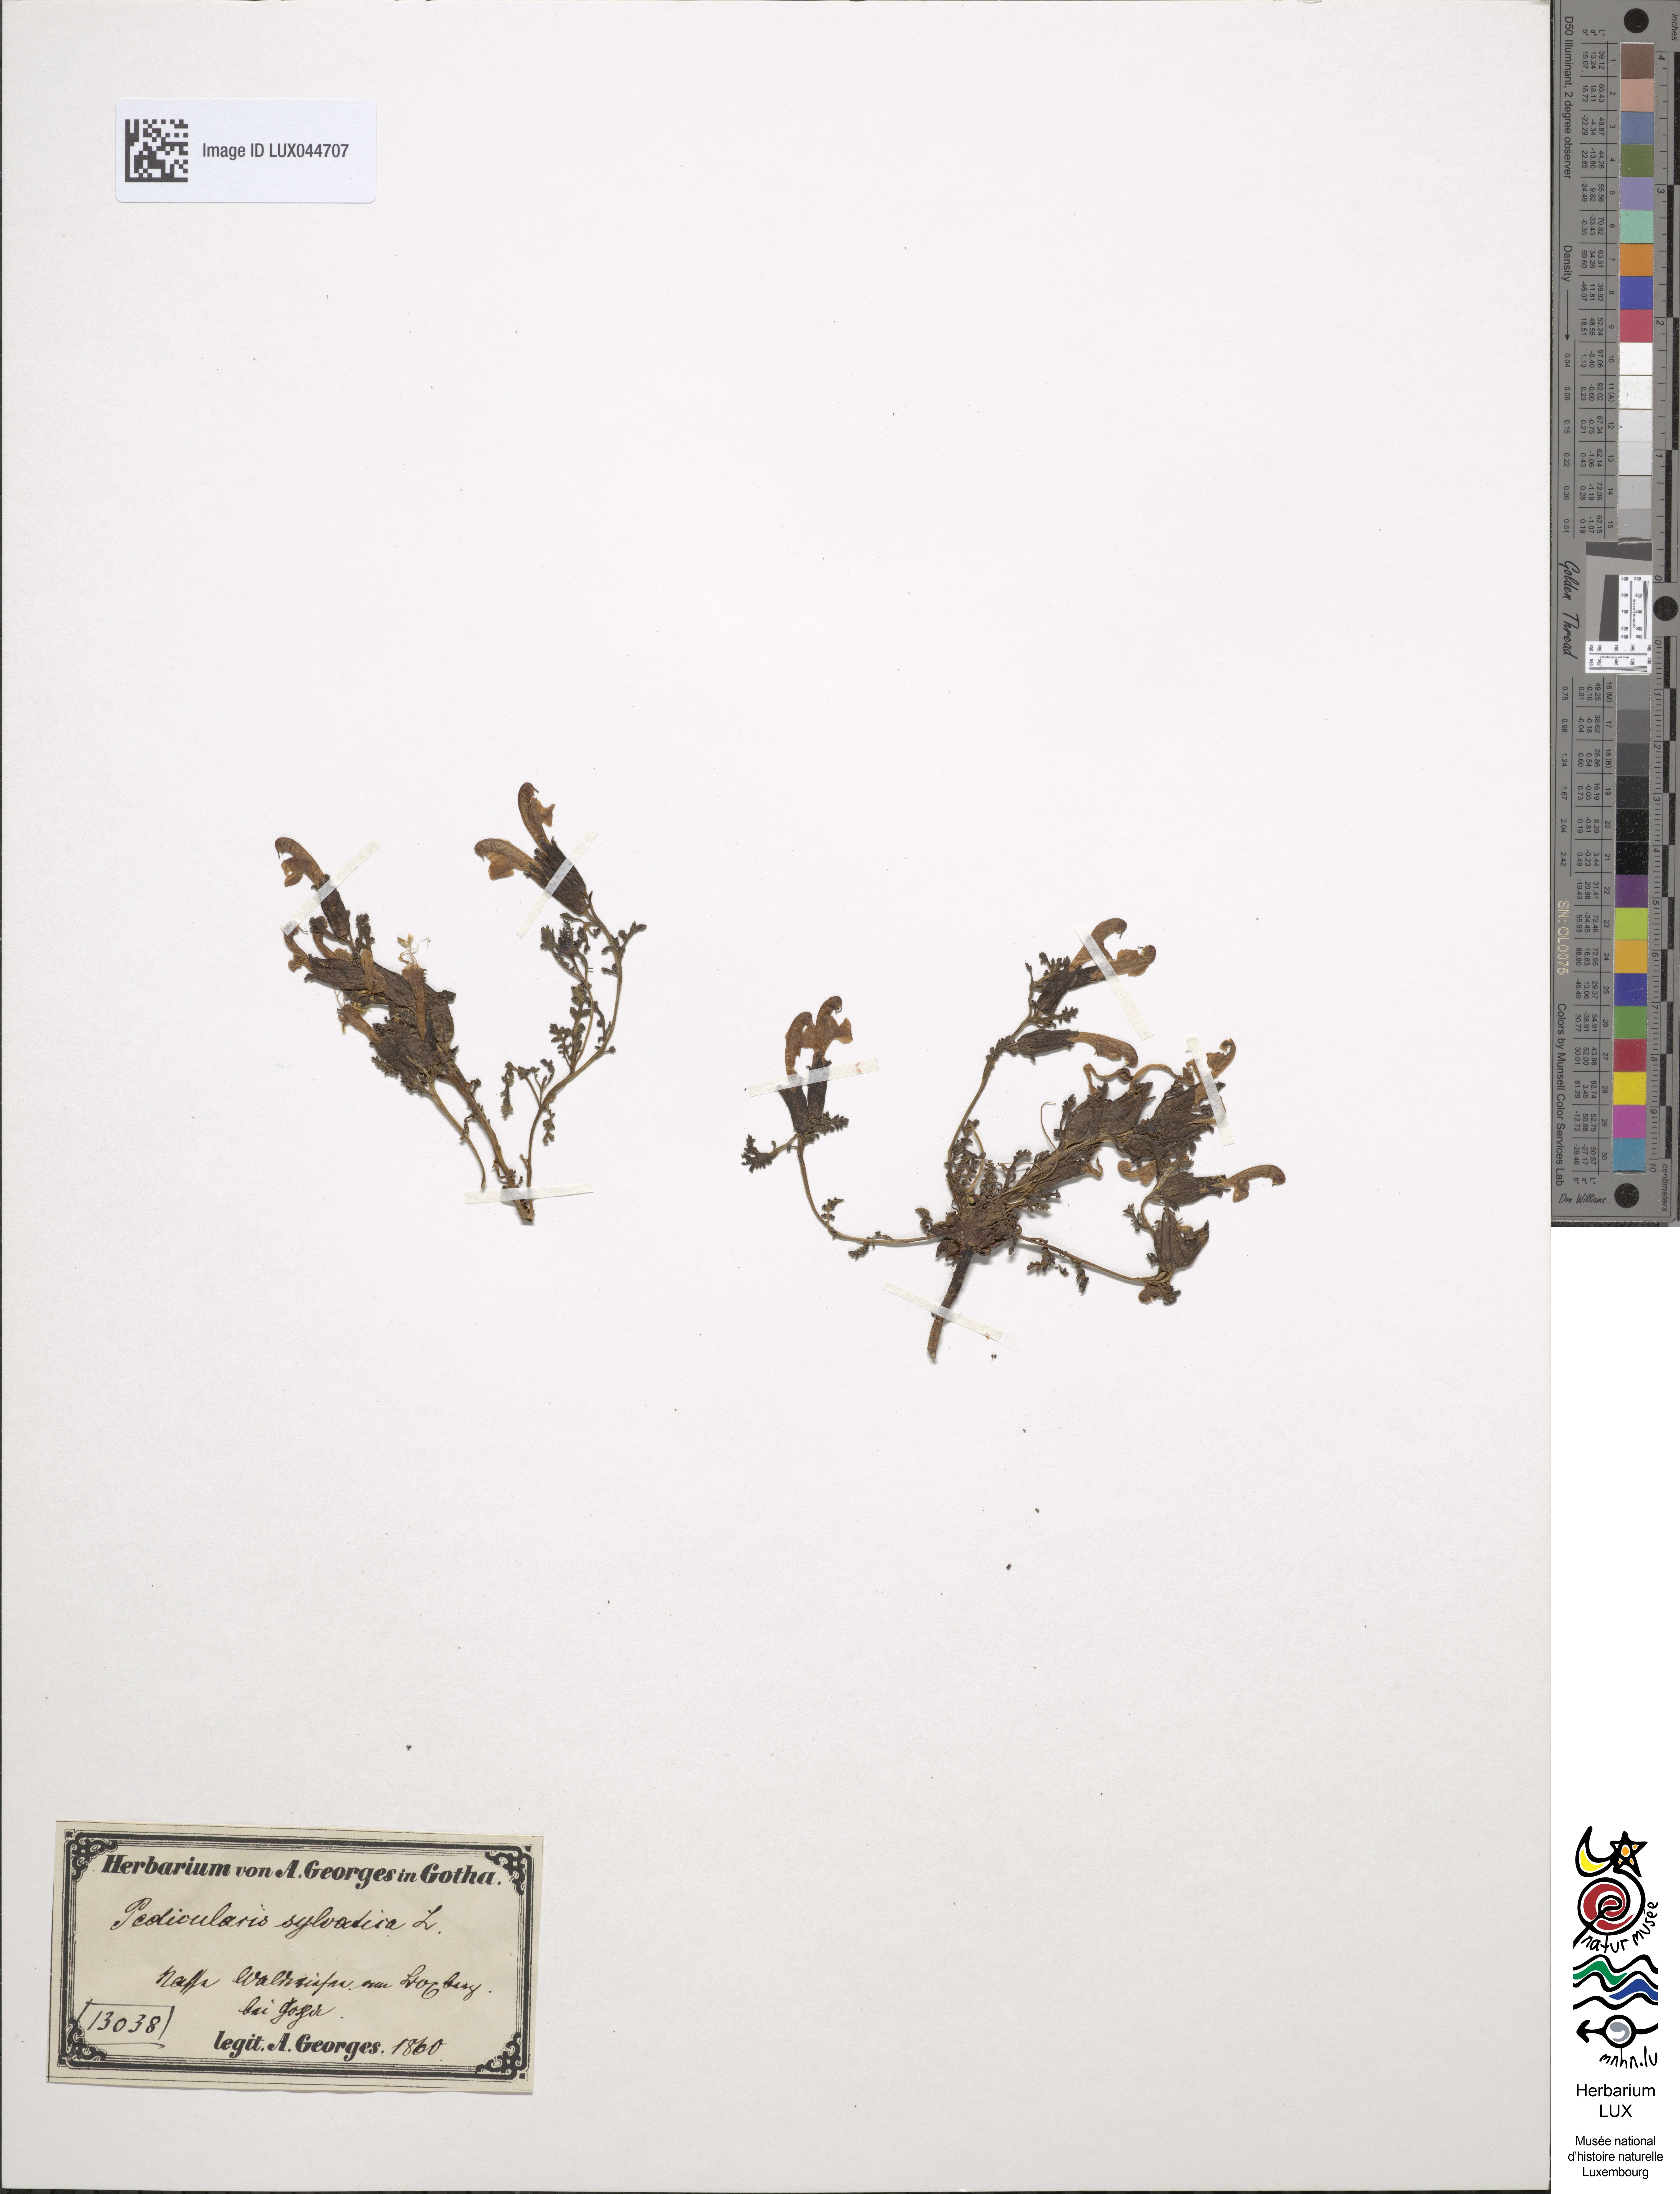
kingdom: Plantae
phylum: Tracheophyta
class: Magnoliopsida
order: Lamiales
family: Orobanchaceae
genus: Pedicularis
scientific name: Pedicularis sylvatica
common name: Lousewort
